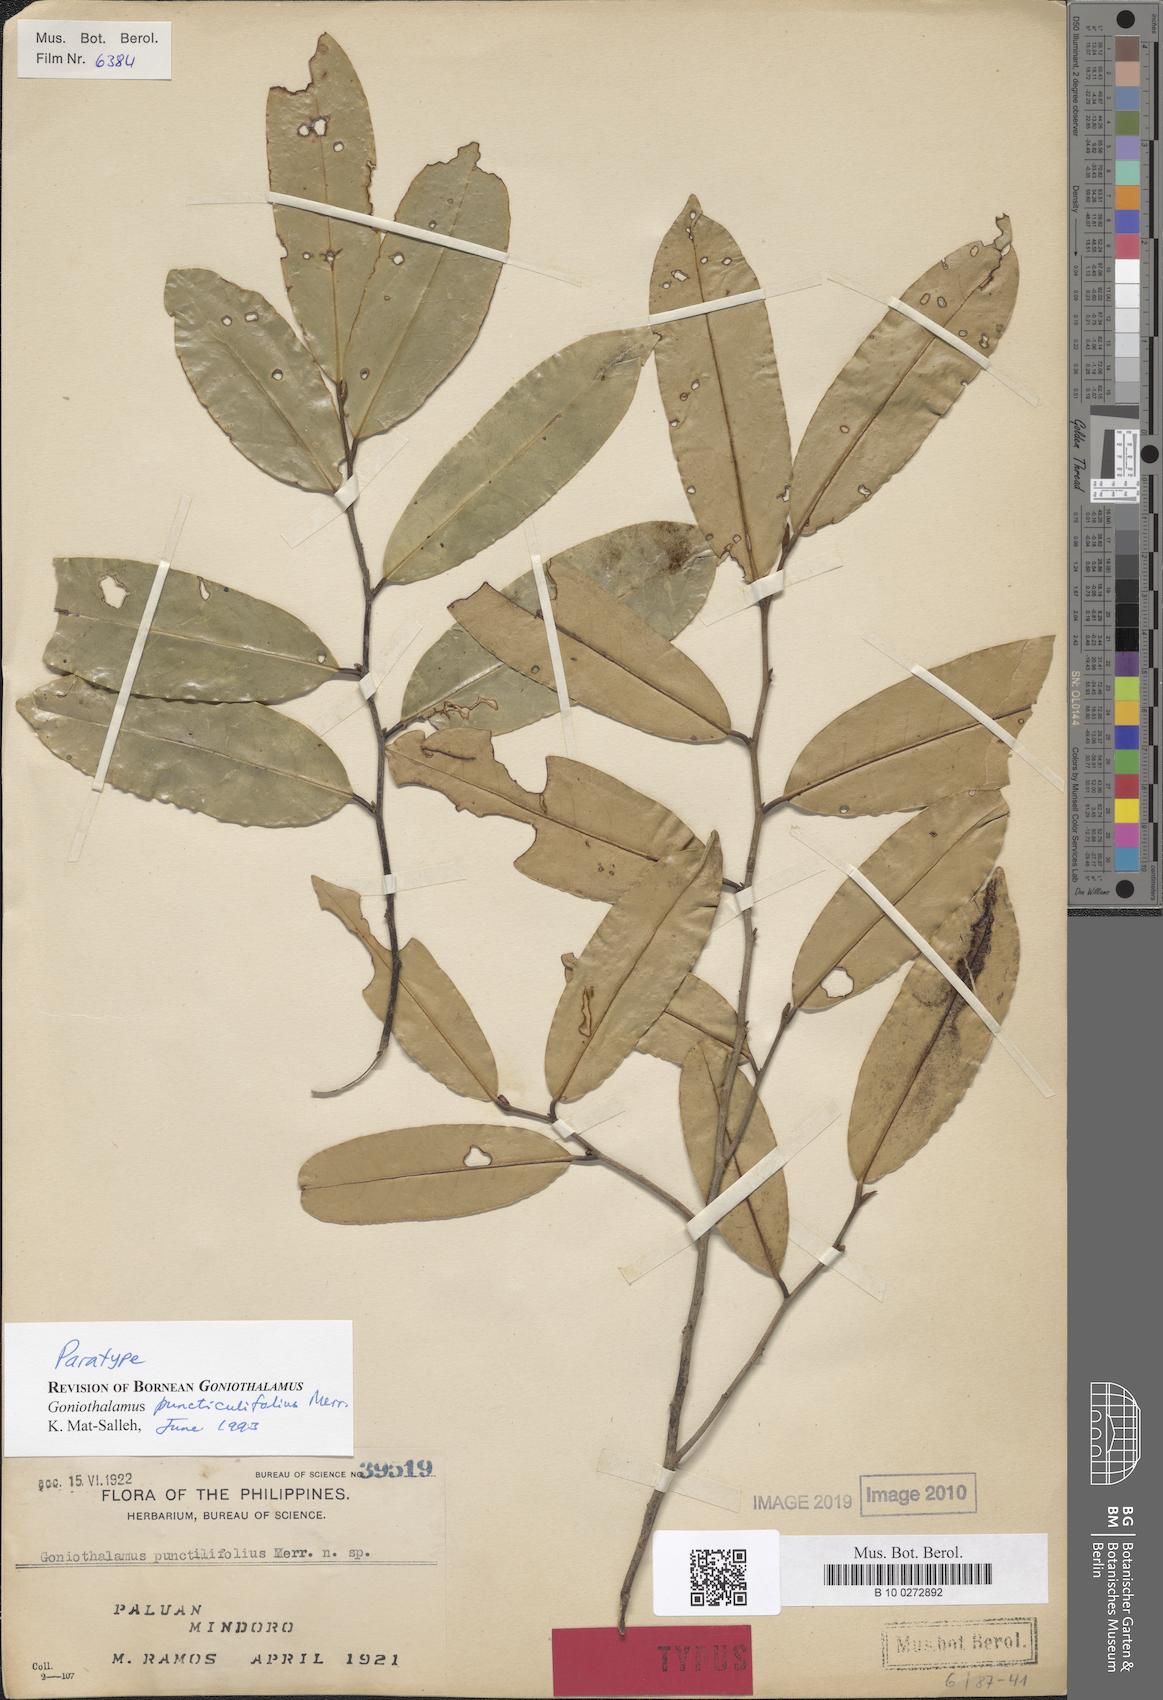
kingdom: Plantae
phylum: Tracheophyta
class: Magnoliopsida
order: Magnoliales
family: Annonaceae
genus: Goniothalamus
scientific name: Goniothalamus puncticulifolius
